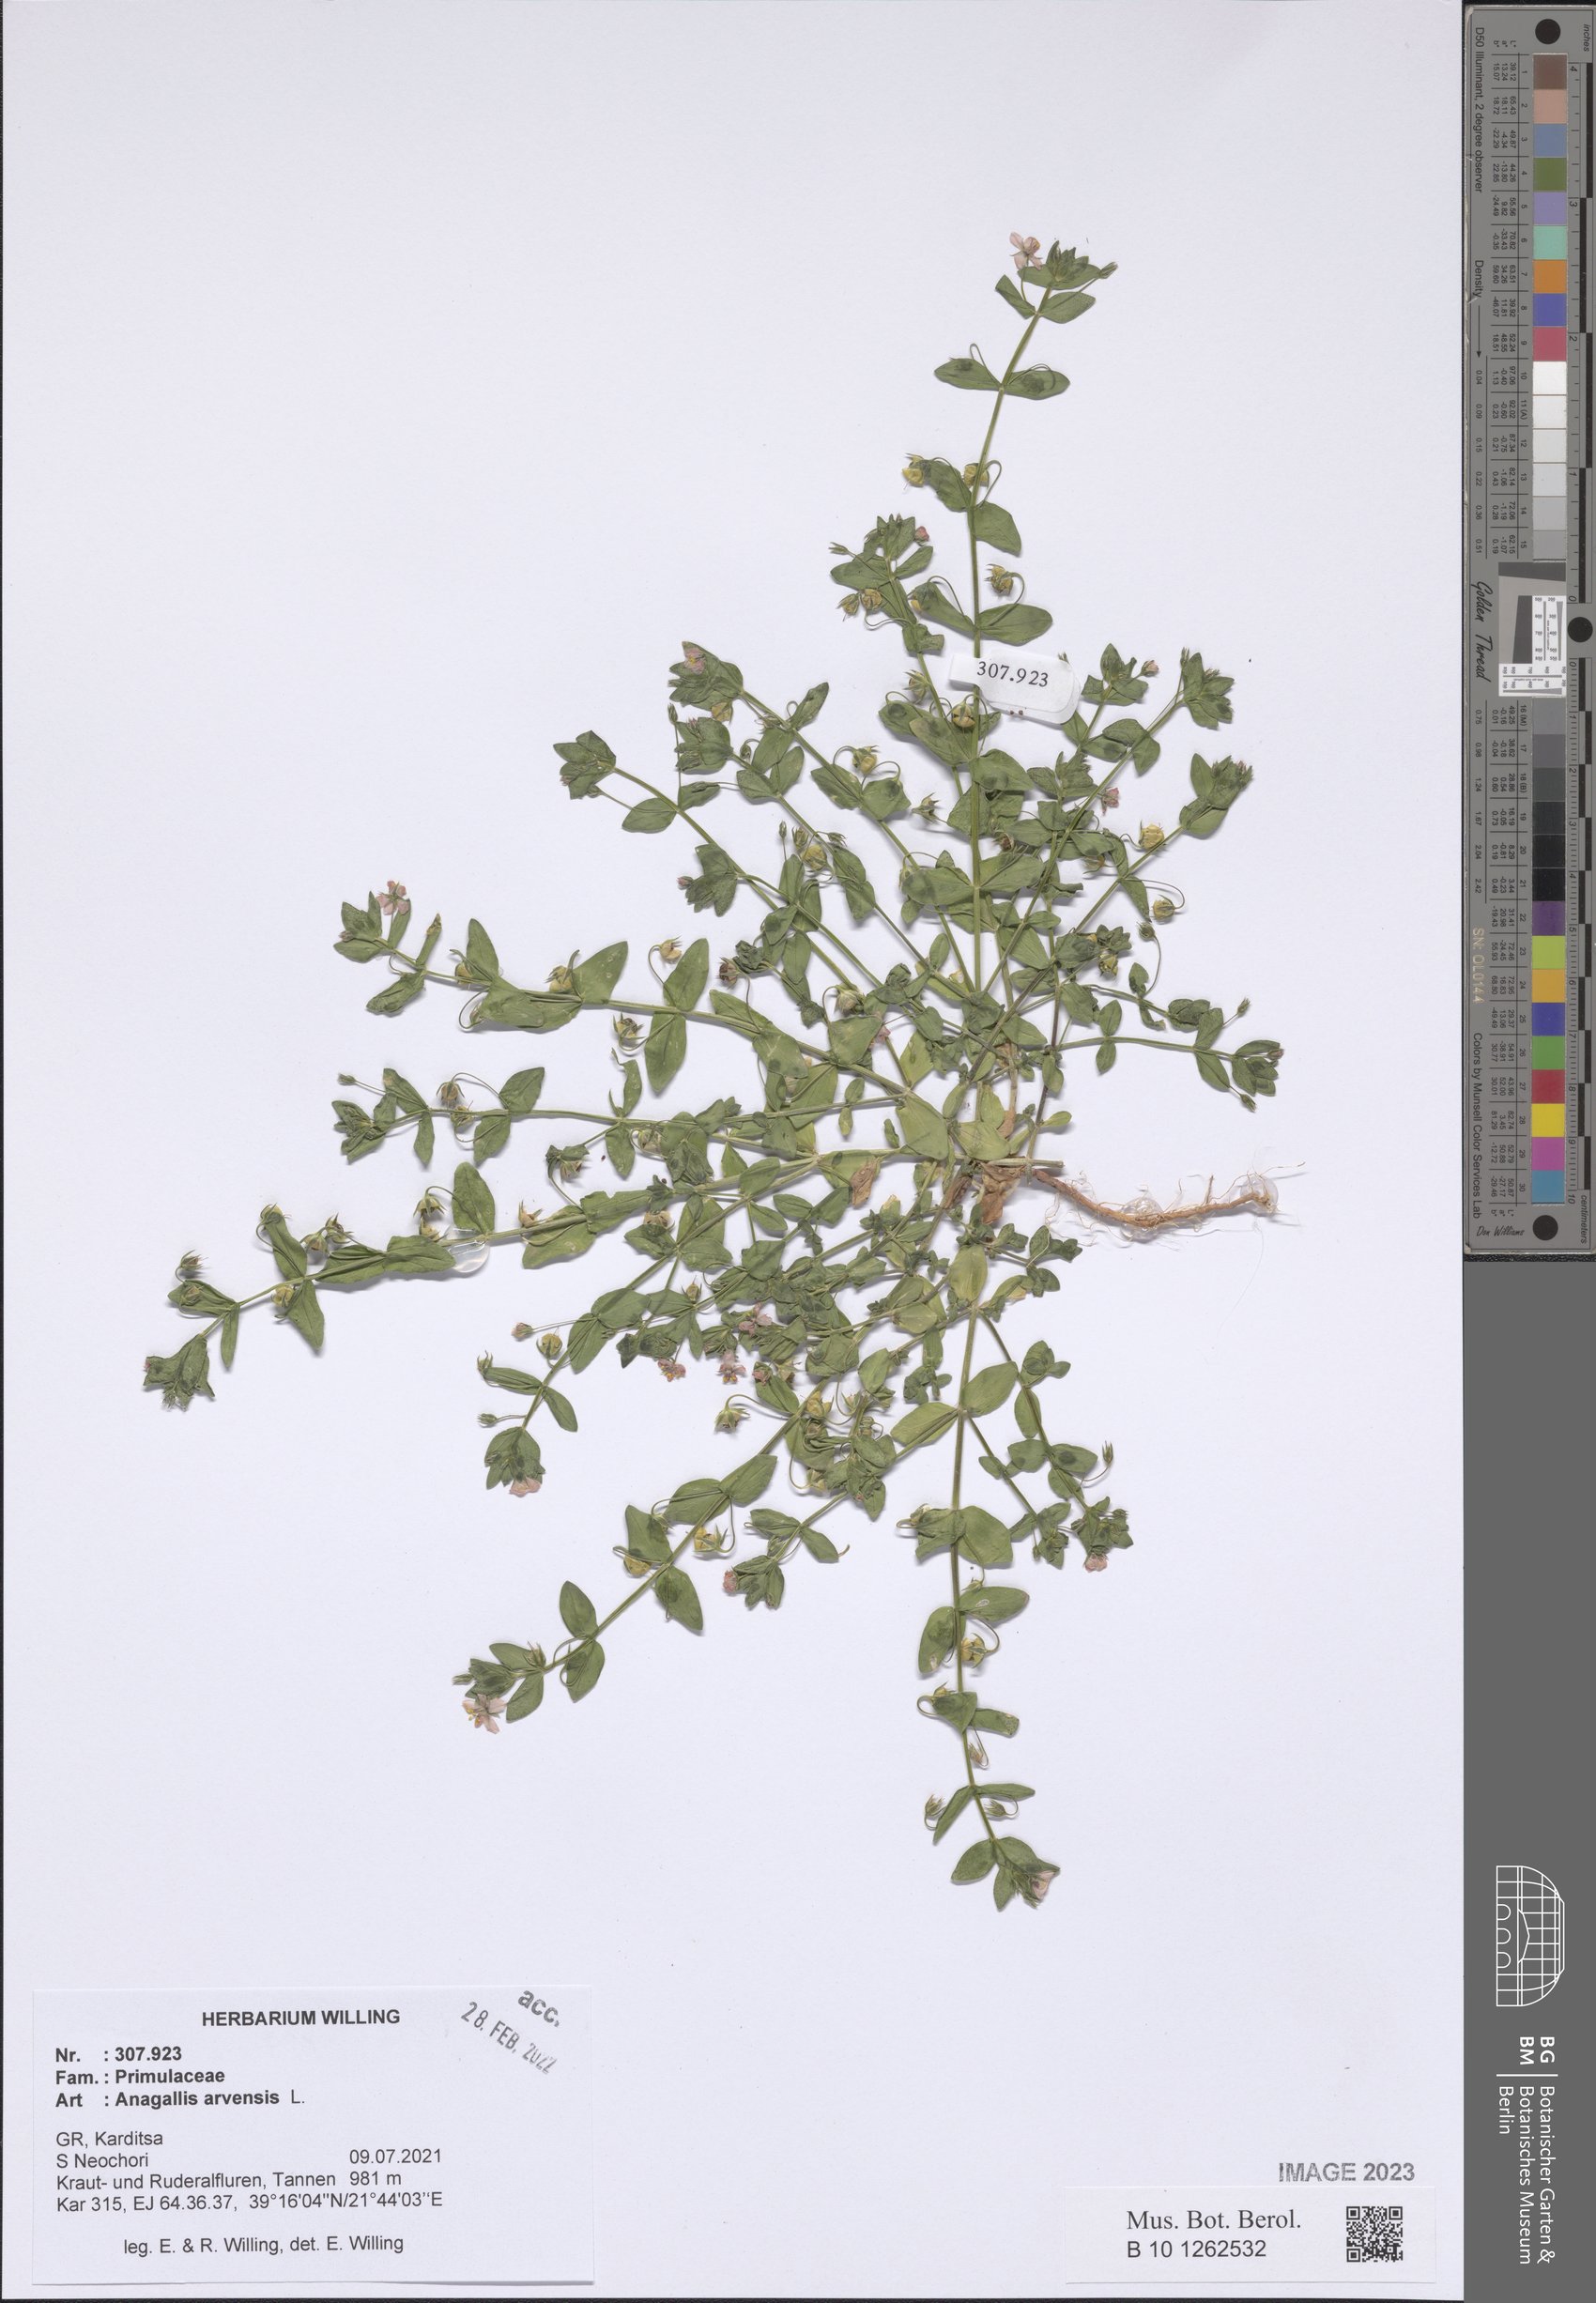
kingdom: Plantae
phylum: Tracheophyta
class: Magnoliopsida
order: Ericales
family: Primulaceae
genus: Lysimachia
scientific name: Lysimachia arvensis
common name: Scarlet pimpernel
